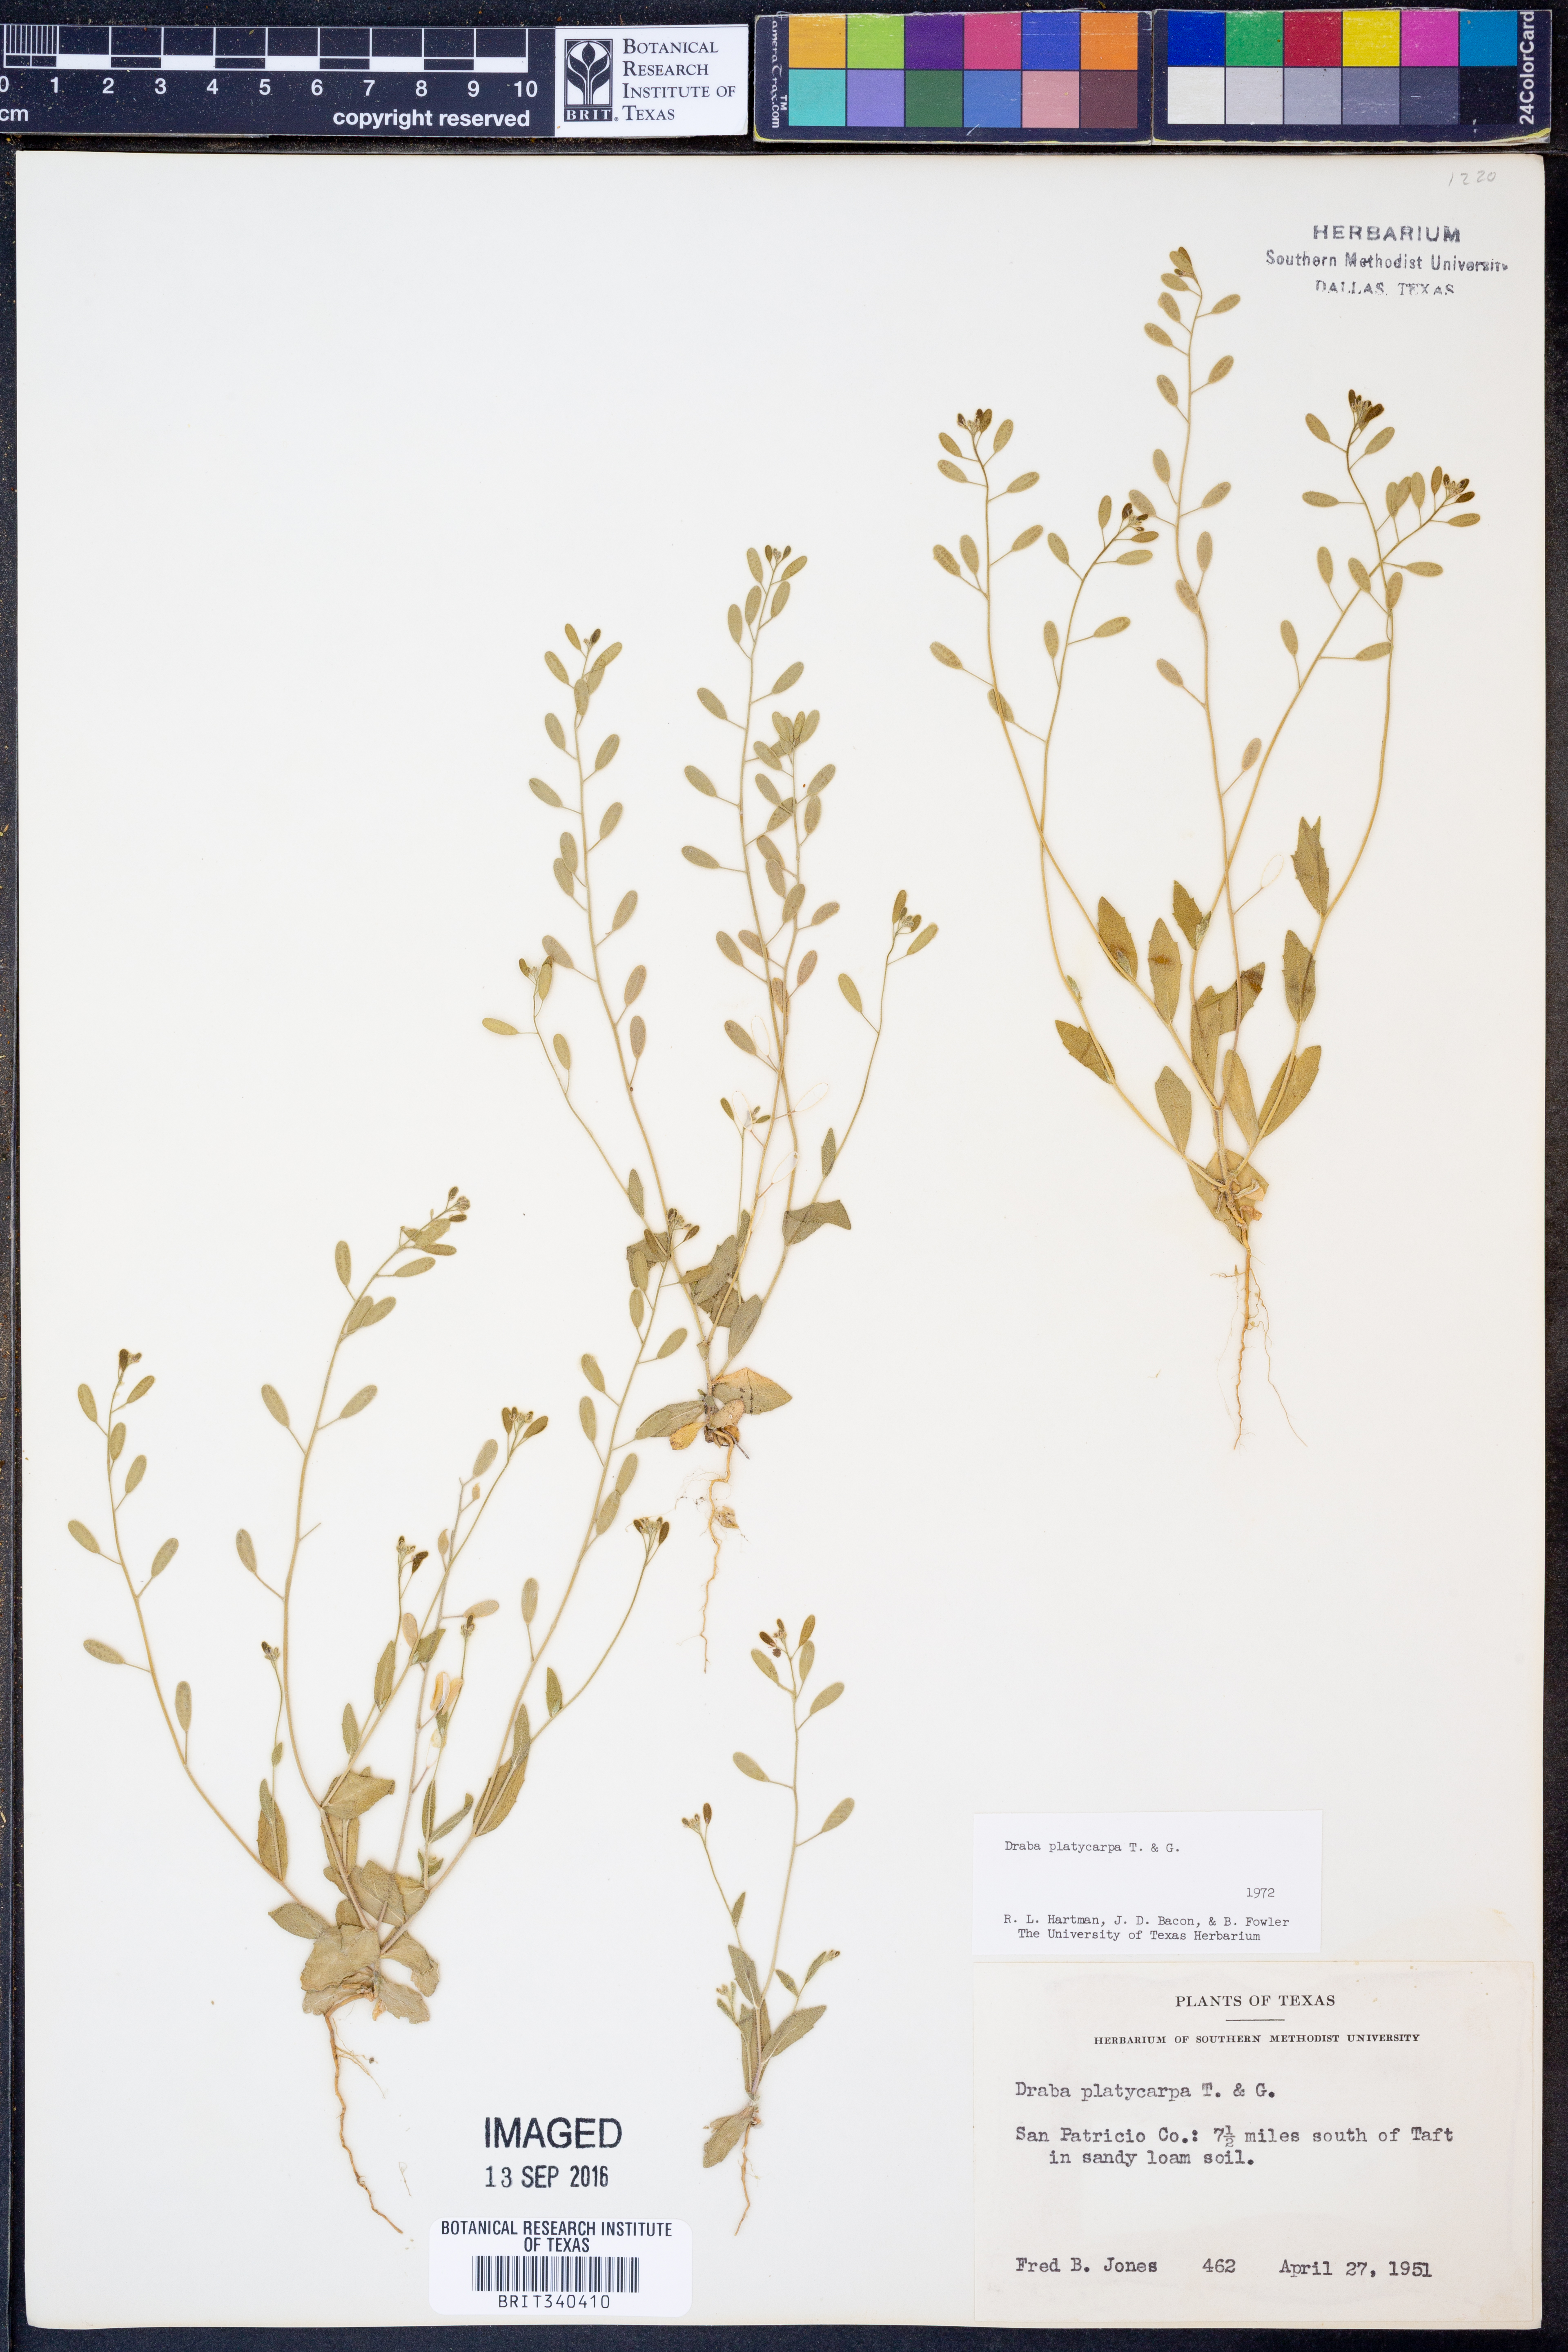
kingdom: Plantae
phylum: Tracheophyta
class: Magnoliopsida
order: Brassicales
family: Brassicaceae
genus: Tomostima
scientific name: Tomostima platycarpa
